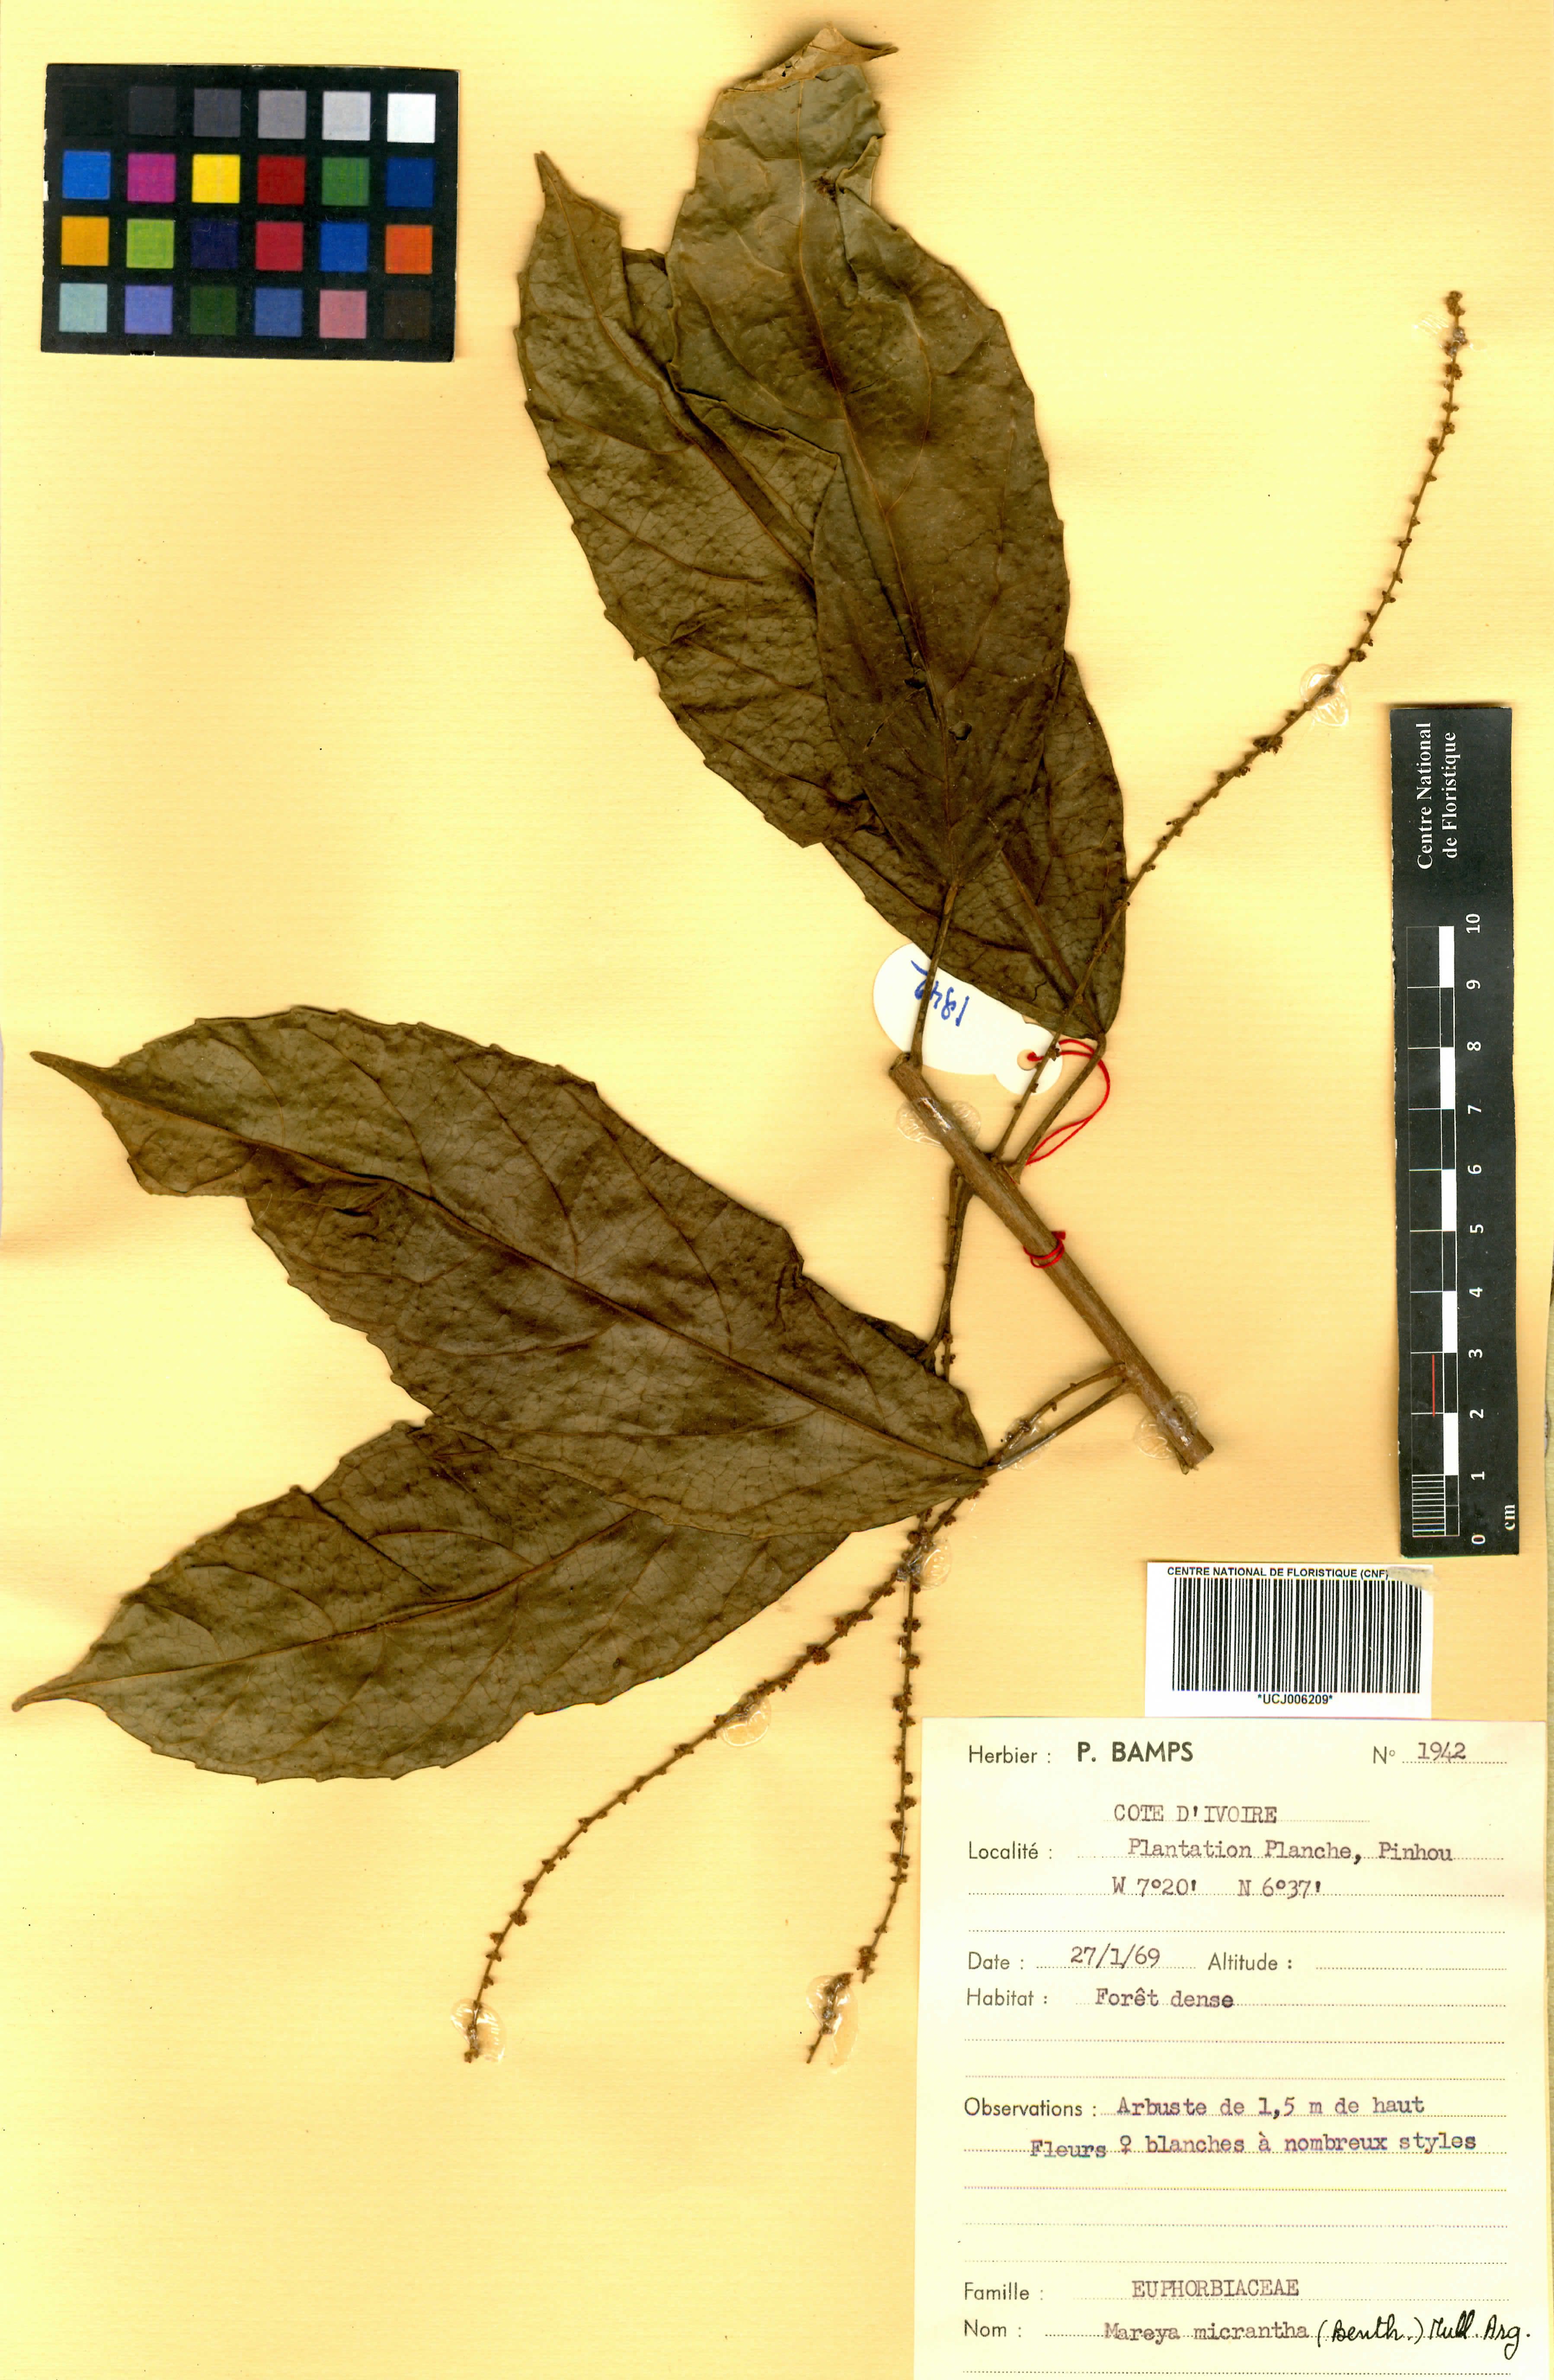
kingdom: Plantae
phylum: Tracheophyta
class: Magnoliopsida
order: Malpighiales
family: Euphorbiaceae
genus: Mareya
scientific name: Mareya micrantha
